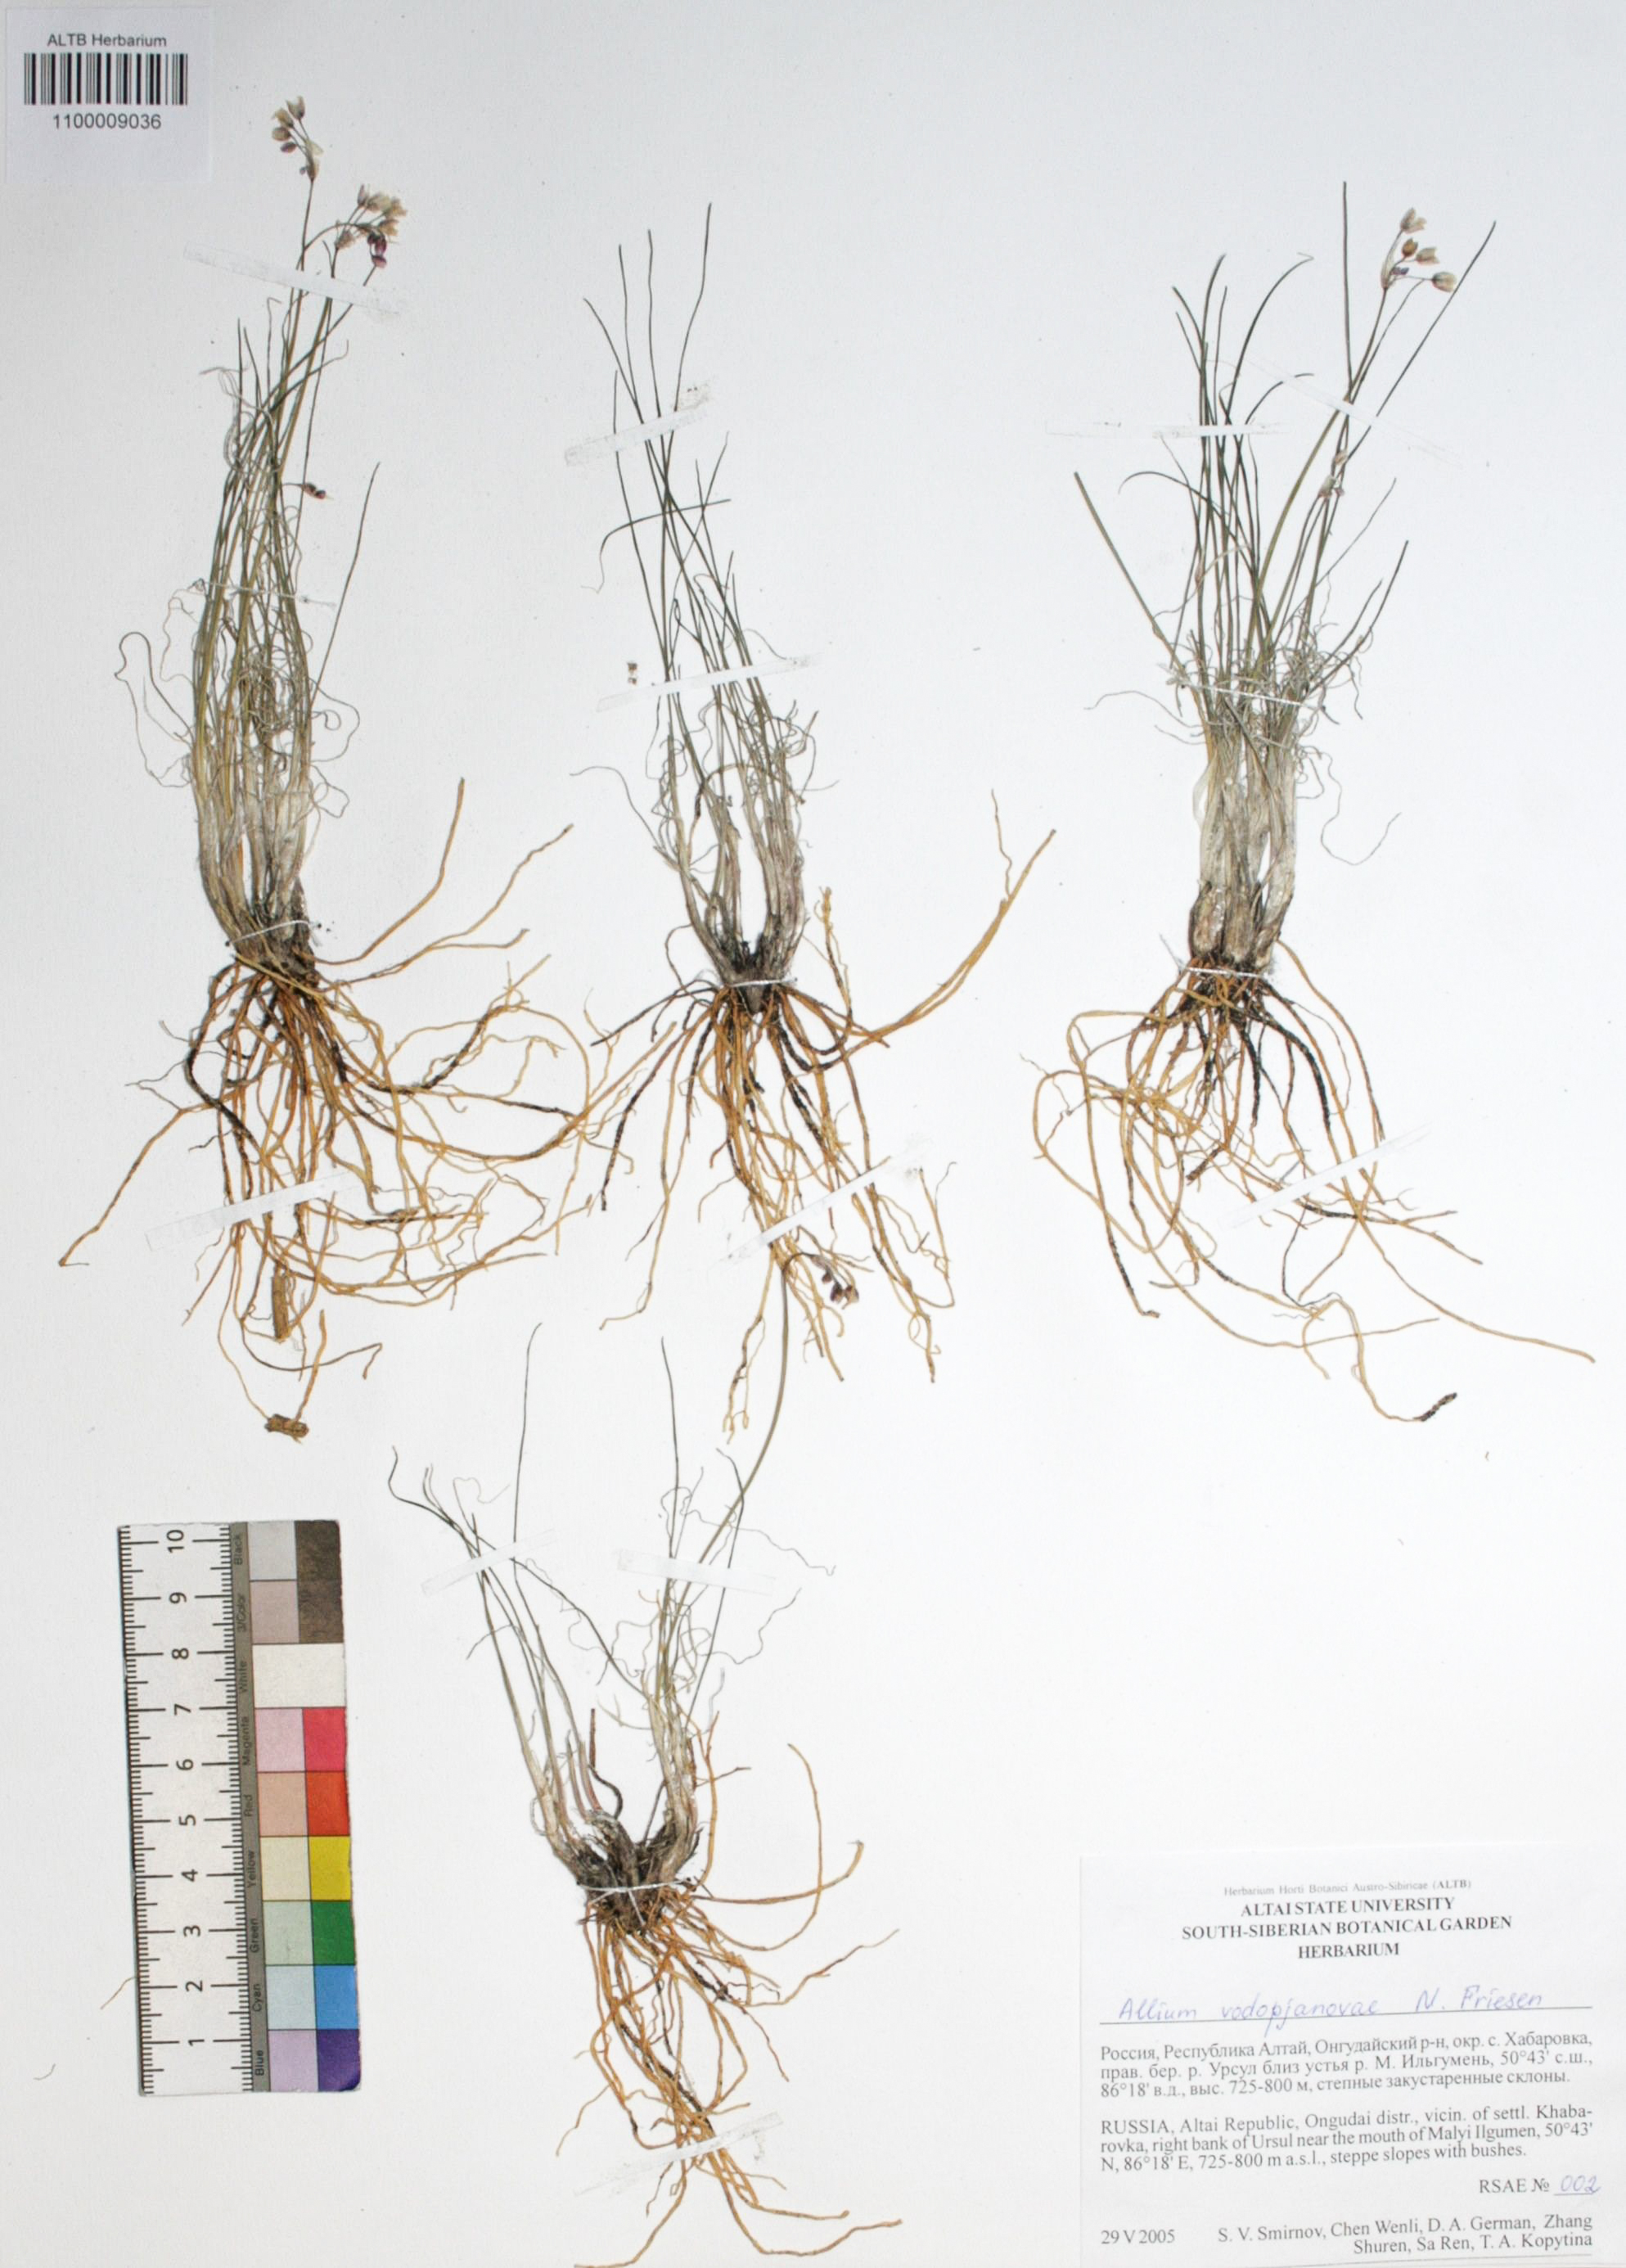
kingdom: Plantae
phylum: Tracheophyta
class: Liliopsida
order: Asparagales
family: Amaryllidaceae
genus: Allium
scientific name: Allium vodopjanovae
